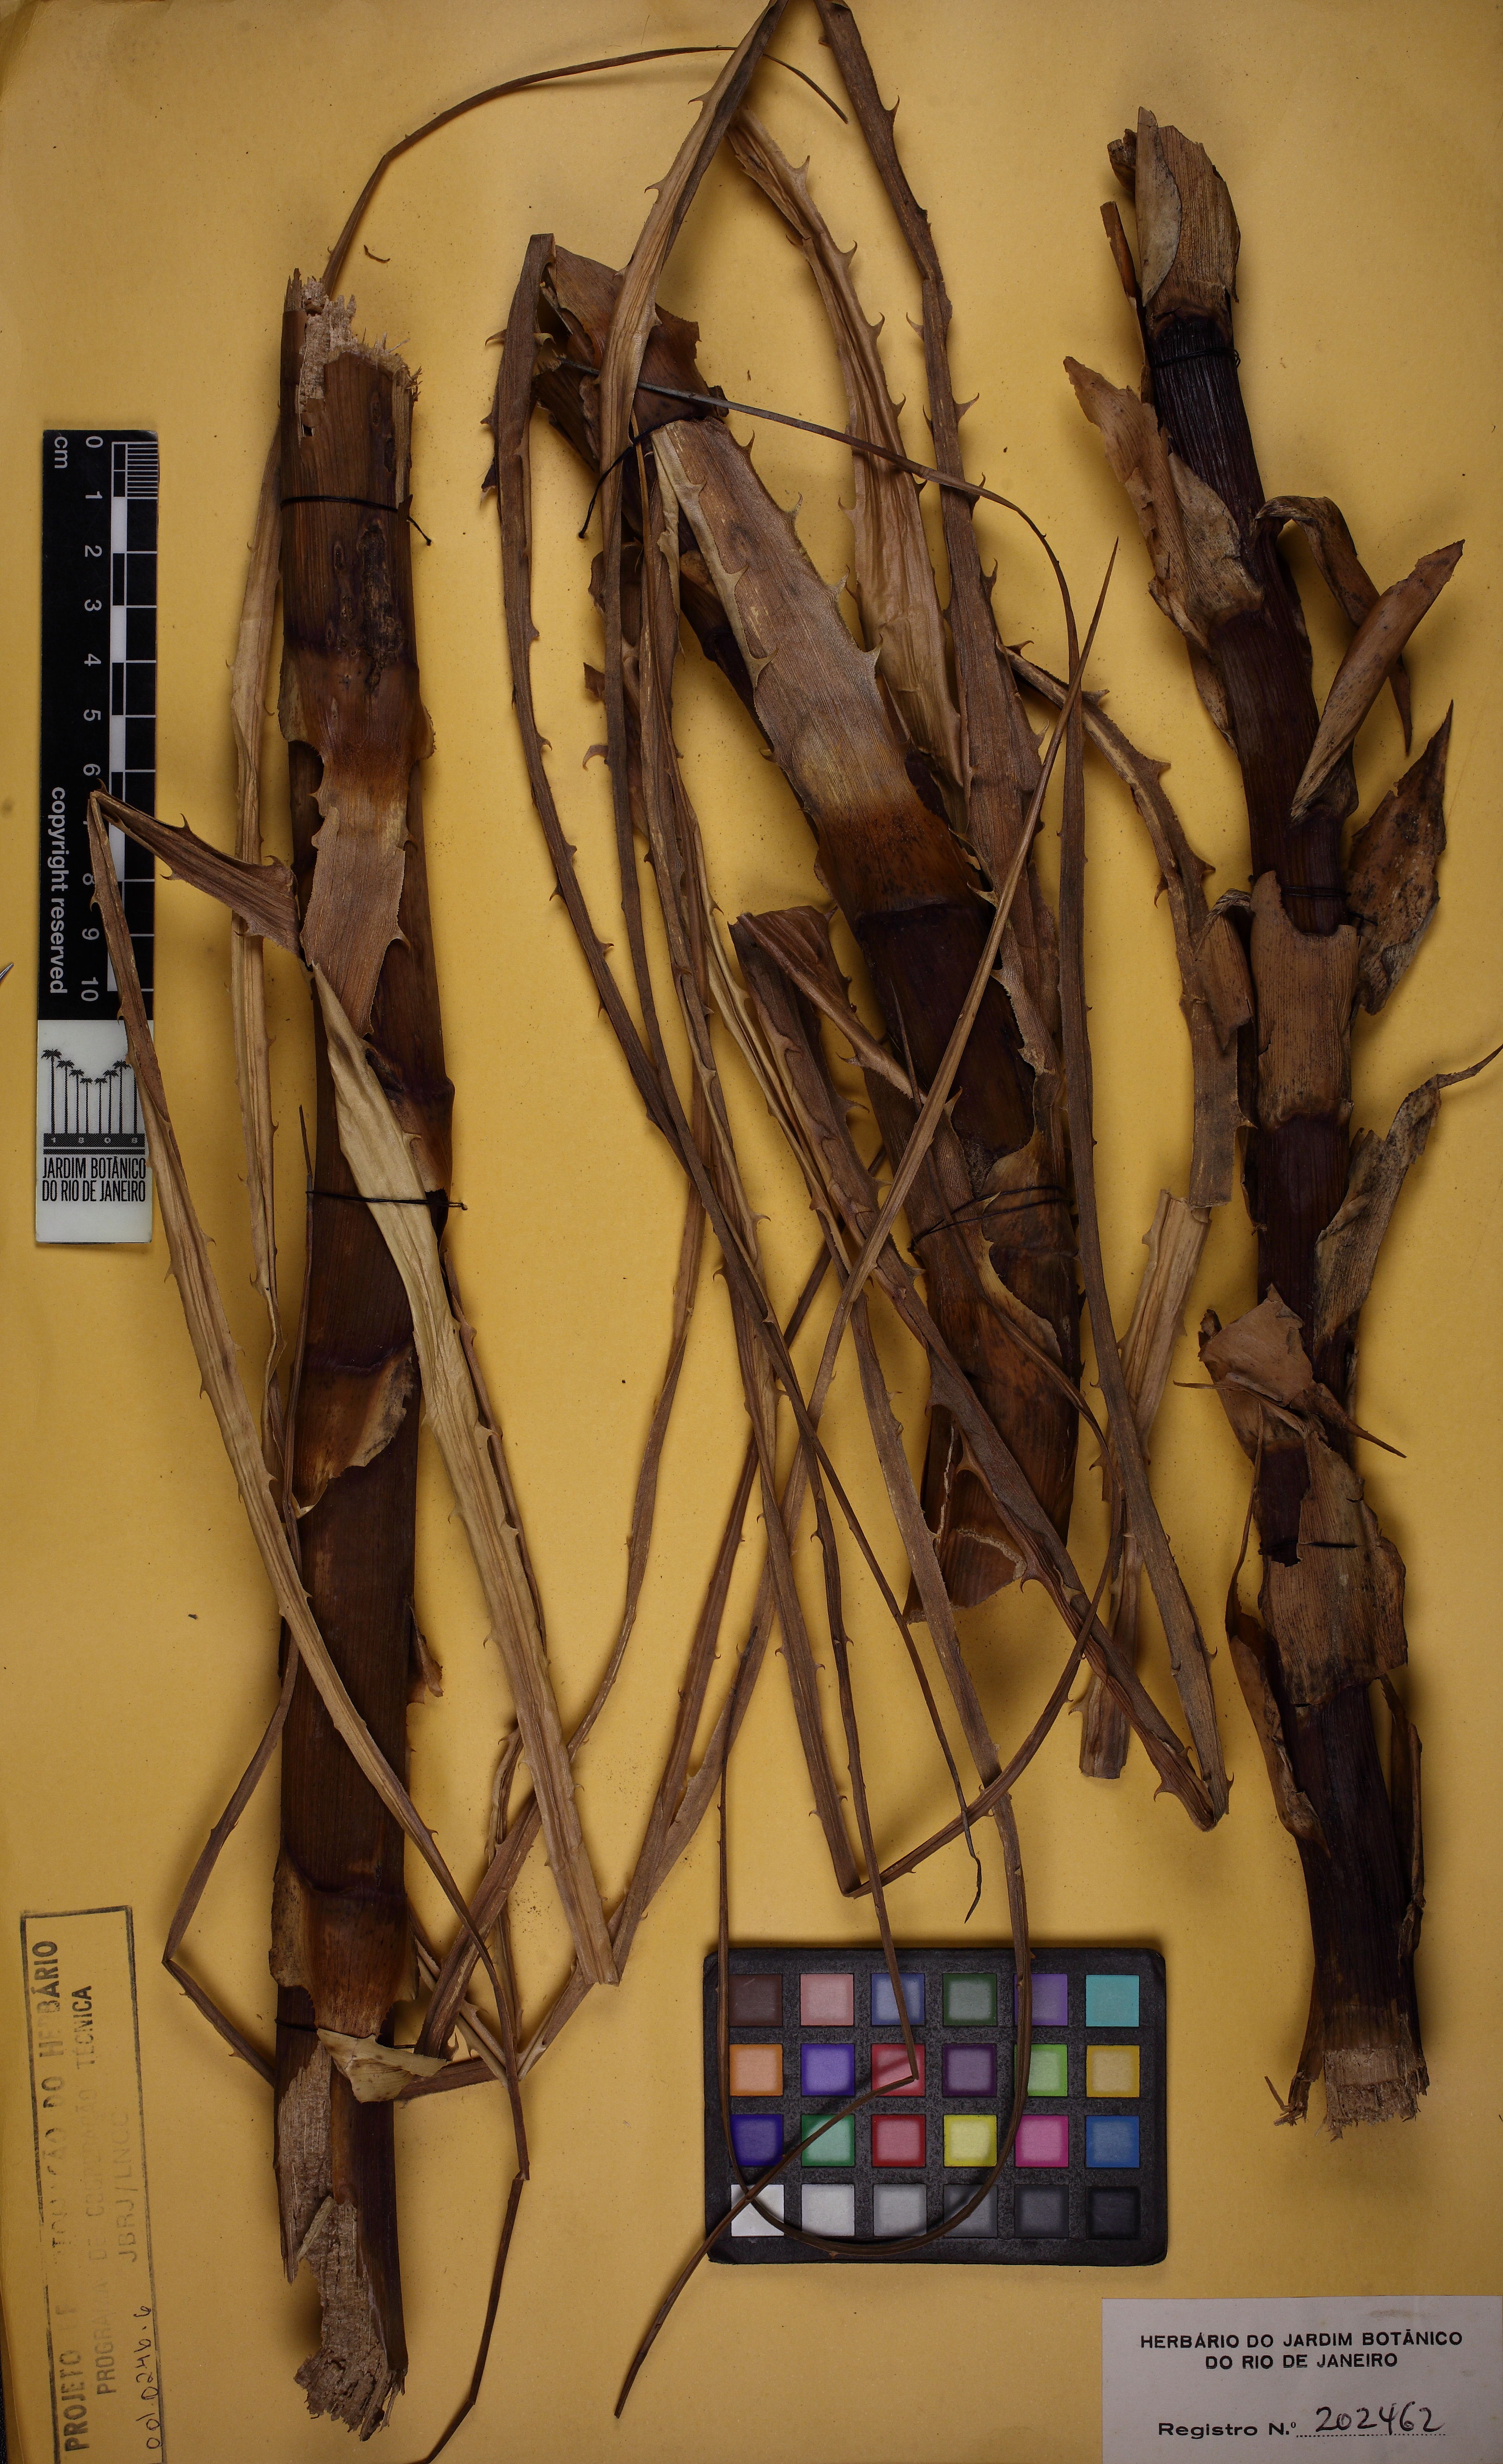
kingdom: Plantae
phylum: Tracheophyta
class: Liliopsida
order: Poales
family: Bromeliaceae
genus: Encholirium
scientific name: Encholirium subsecundum
